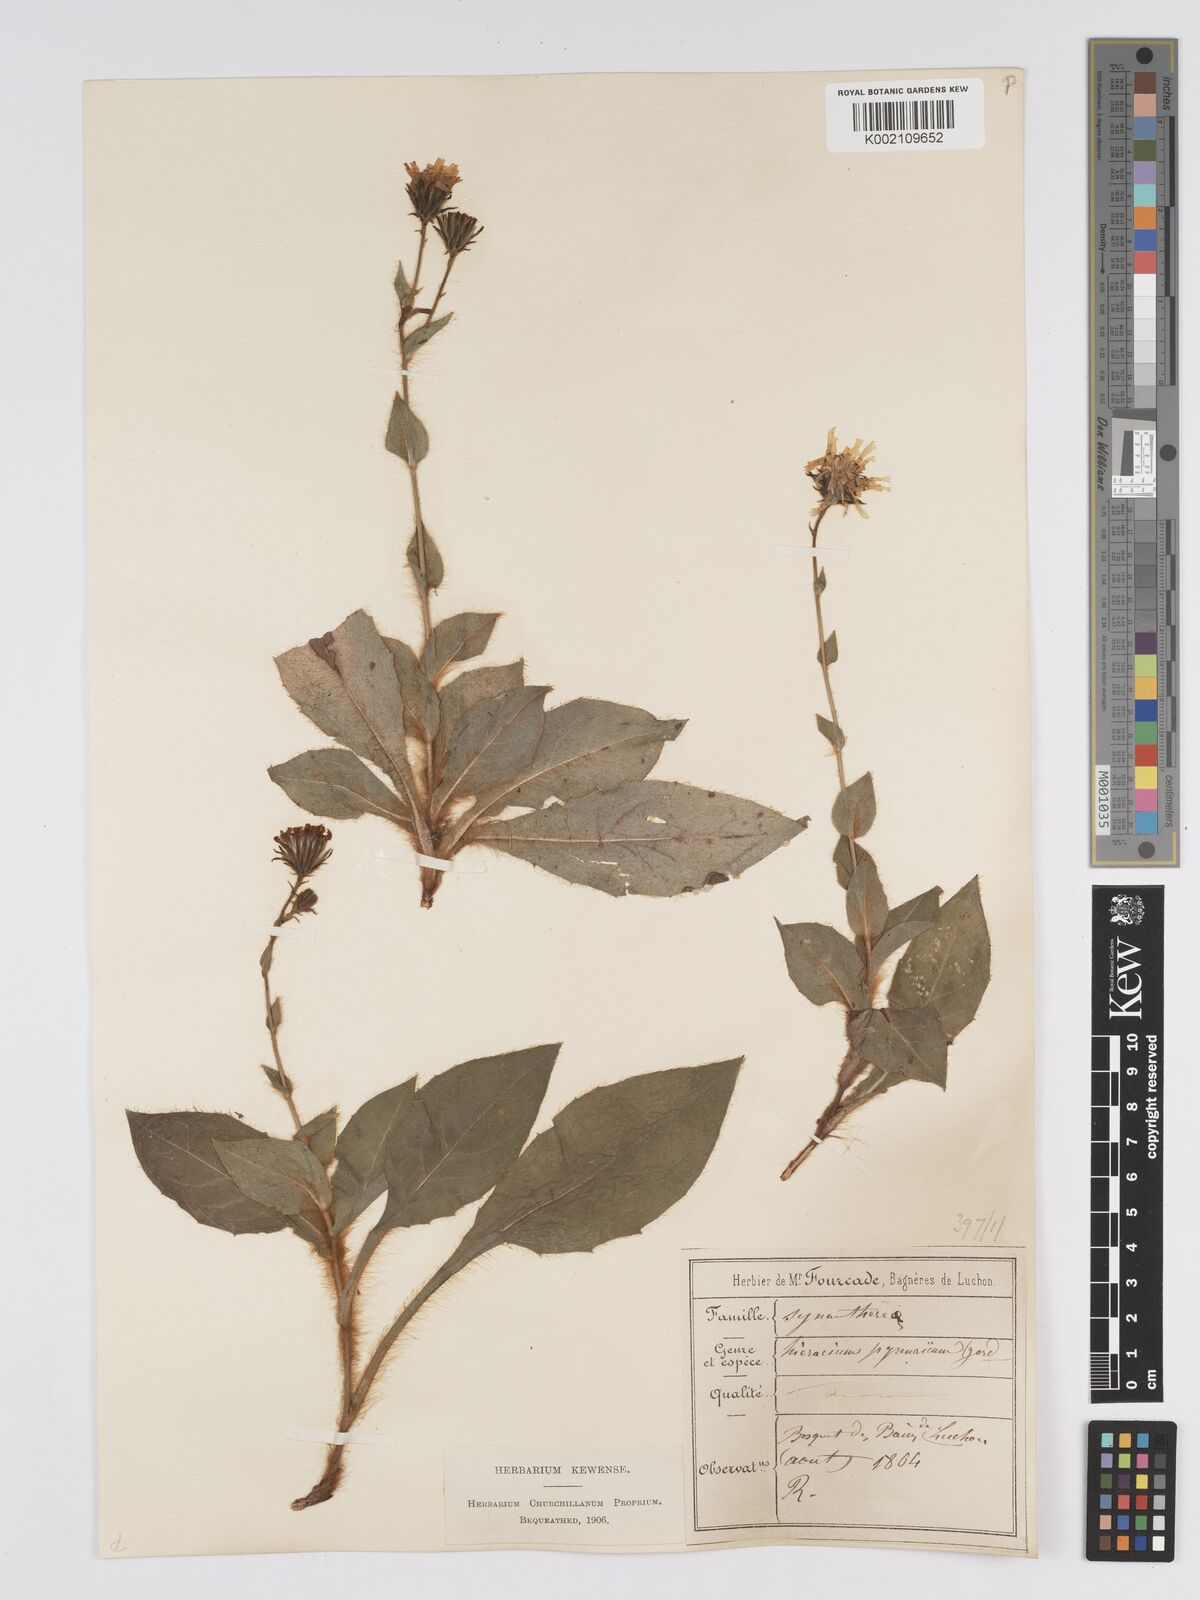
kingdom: Plantae
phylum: Tracheophyta
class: Magnoliopsida
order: Asterales
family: Asteraceae
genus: Hieracium
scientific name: Hieracium nobile
